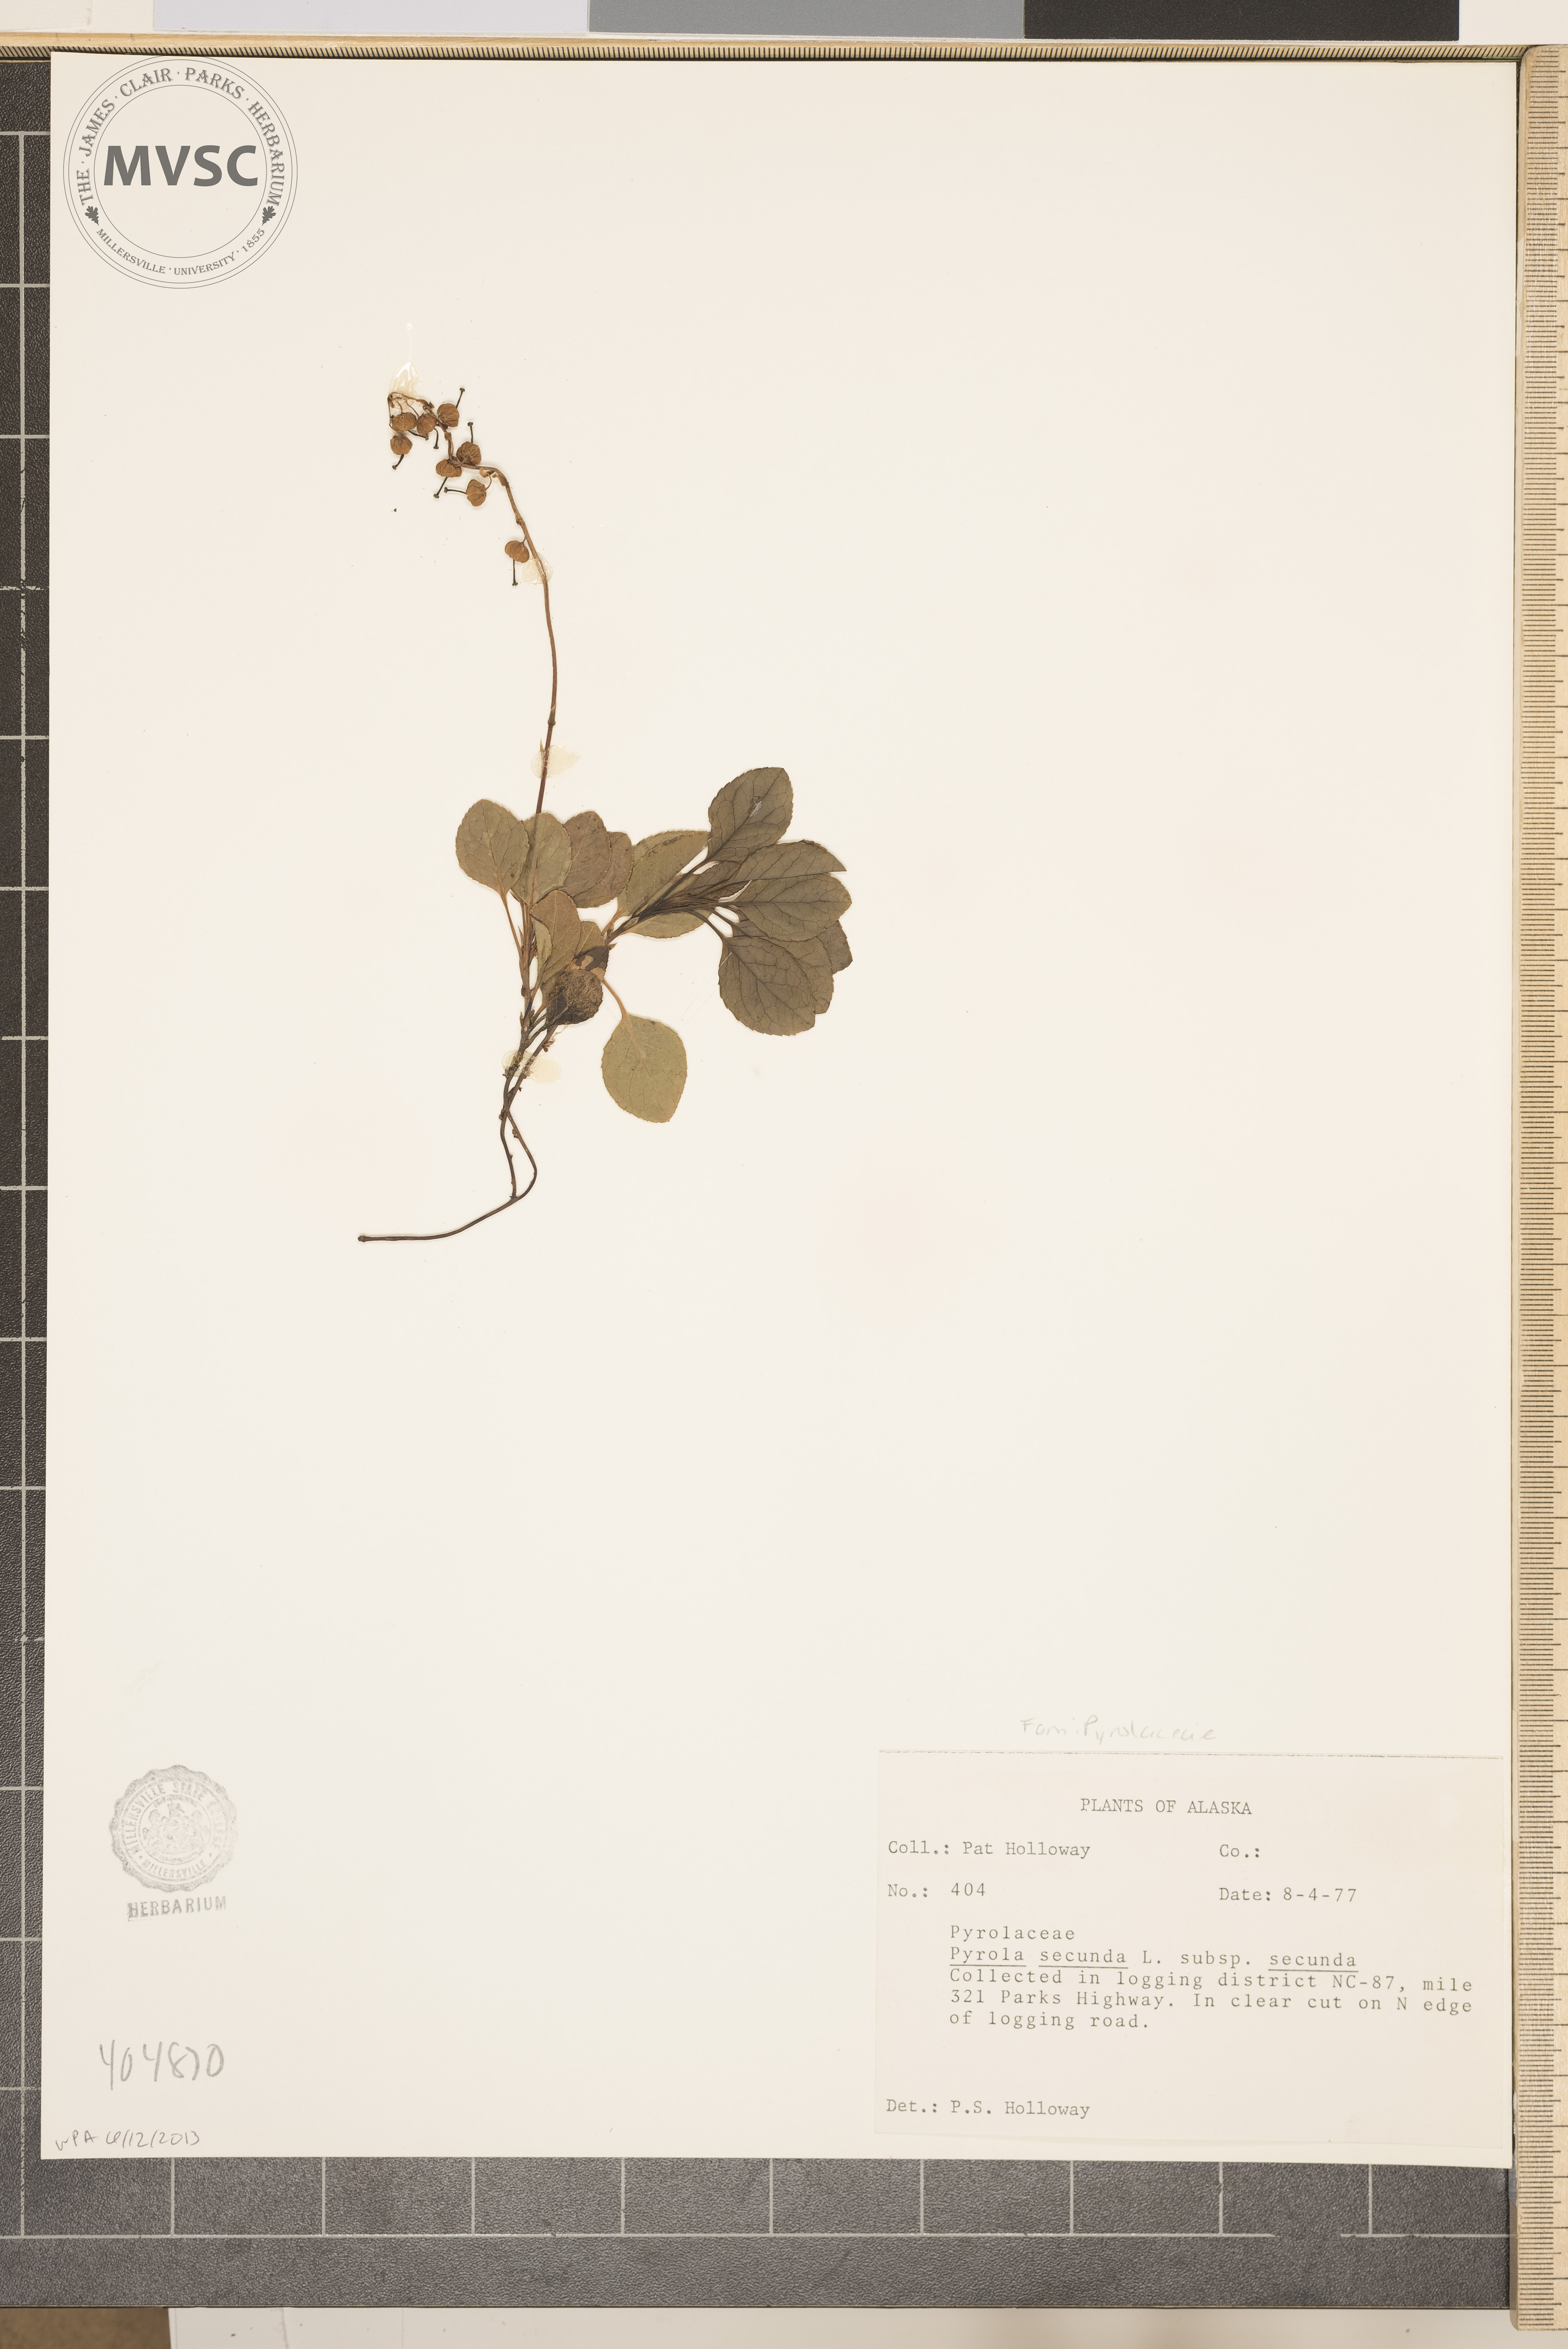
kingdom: Plantae
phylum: Tracheophyta
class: Magnoliopsida
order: Ericales
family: Ericaceae
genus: Orthilia
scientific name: Orthilia secunda
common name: One-sided orthilia
